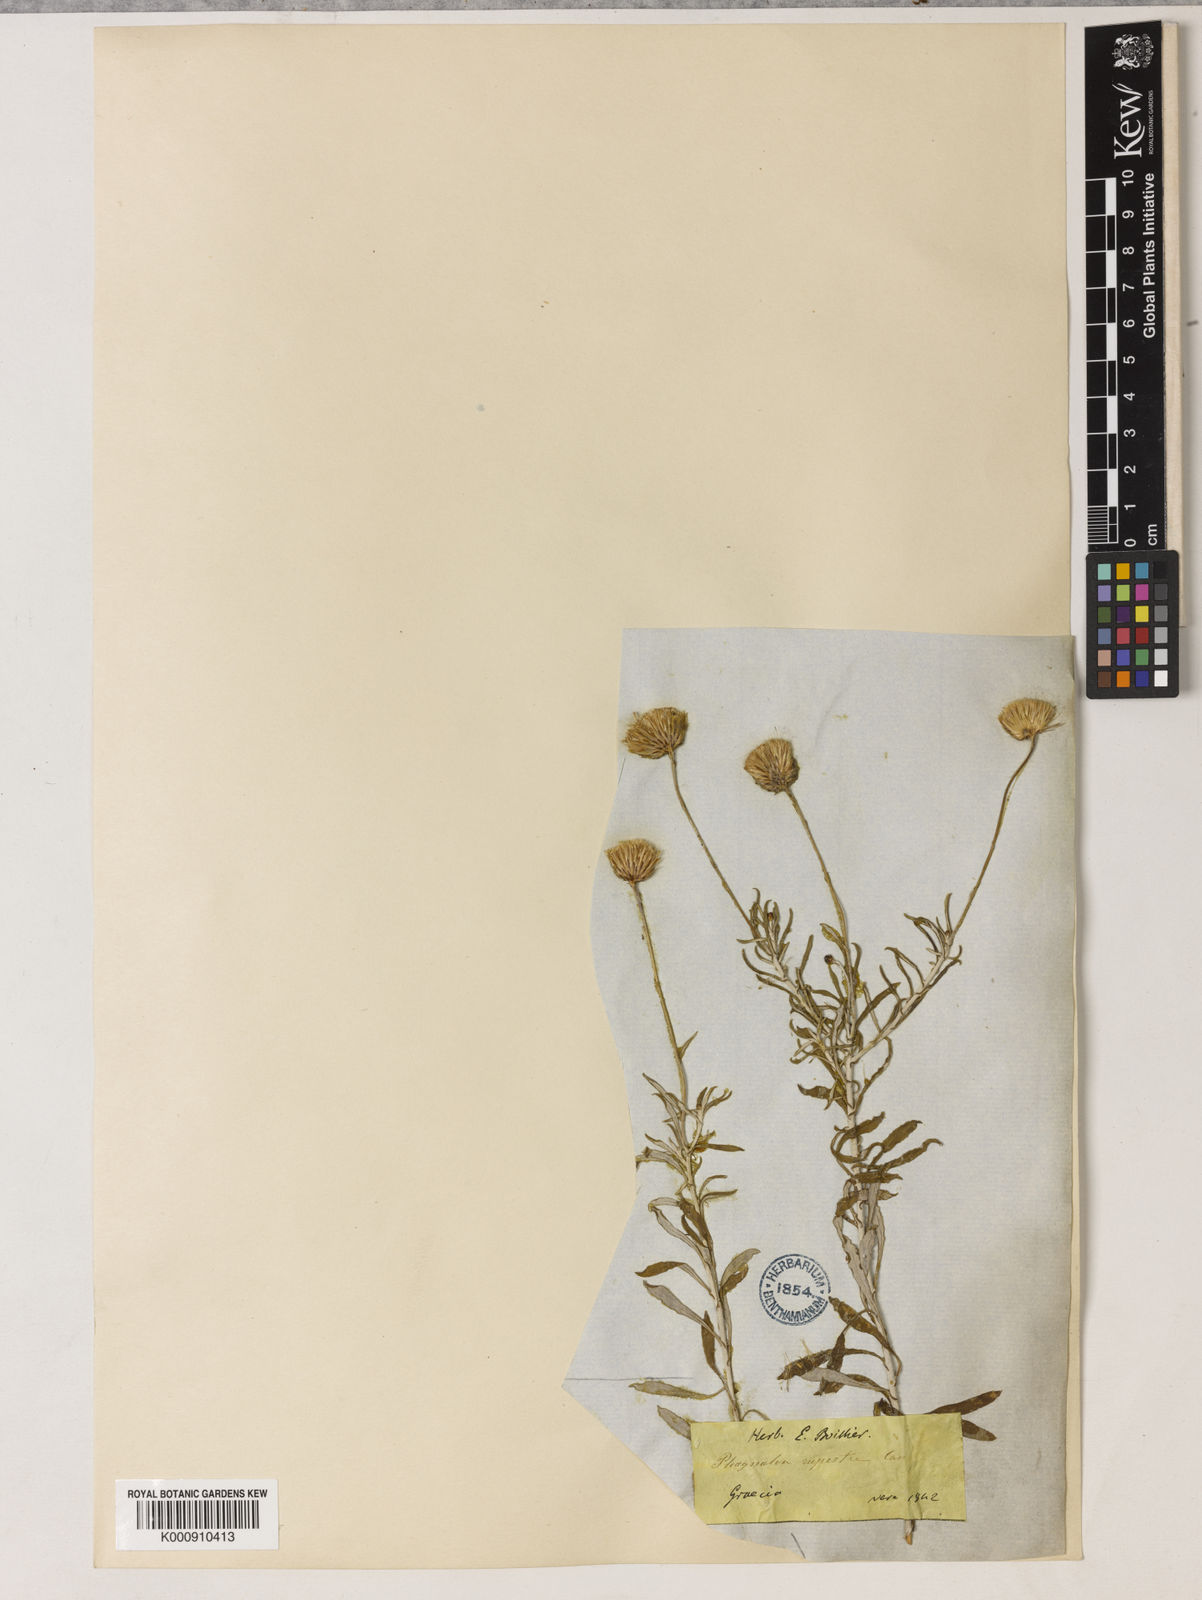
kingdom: Plantae
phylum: Tracheophyta
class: Magnoliopsida
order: Asterales
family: Asteraceae
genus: Phagnalon
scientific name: Phagnalon graecum
